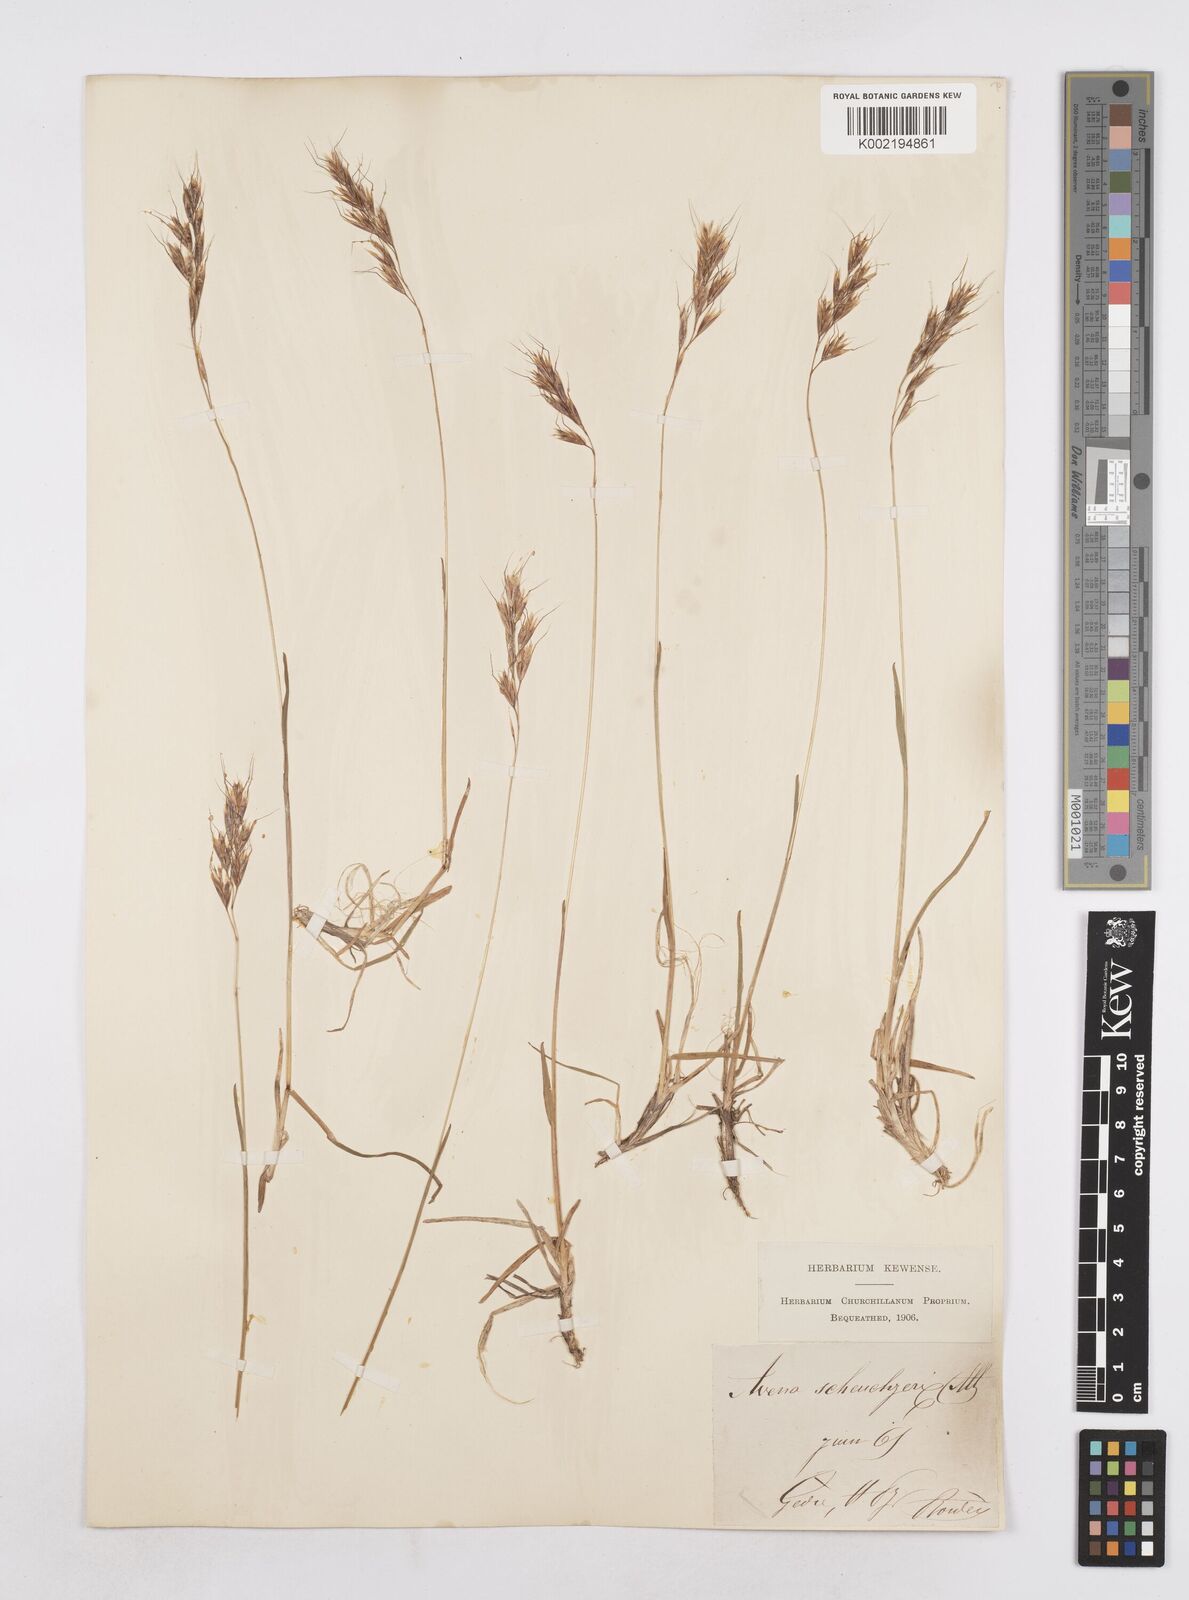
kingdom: Plantae
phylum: Tracheophyta
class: Liliopsida
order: Poales
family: Poaceae
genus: Helictochloa
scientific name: Helictochloa versicolor
